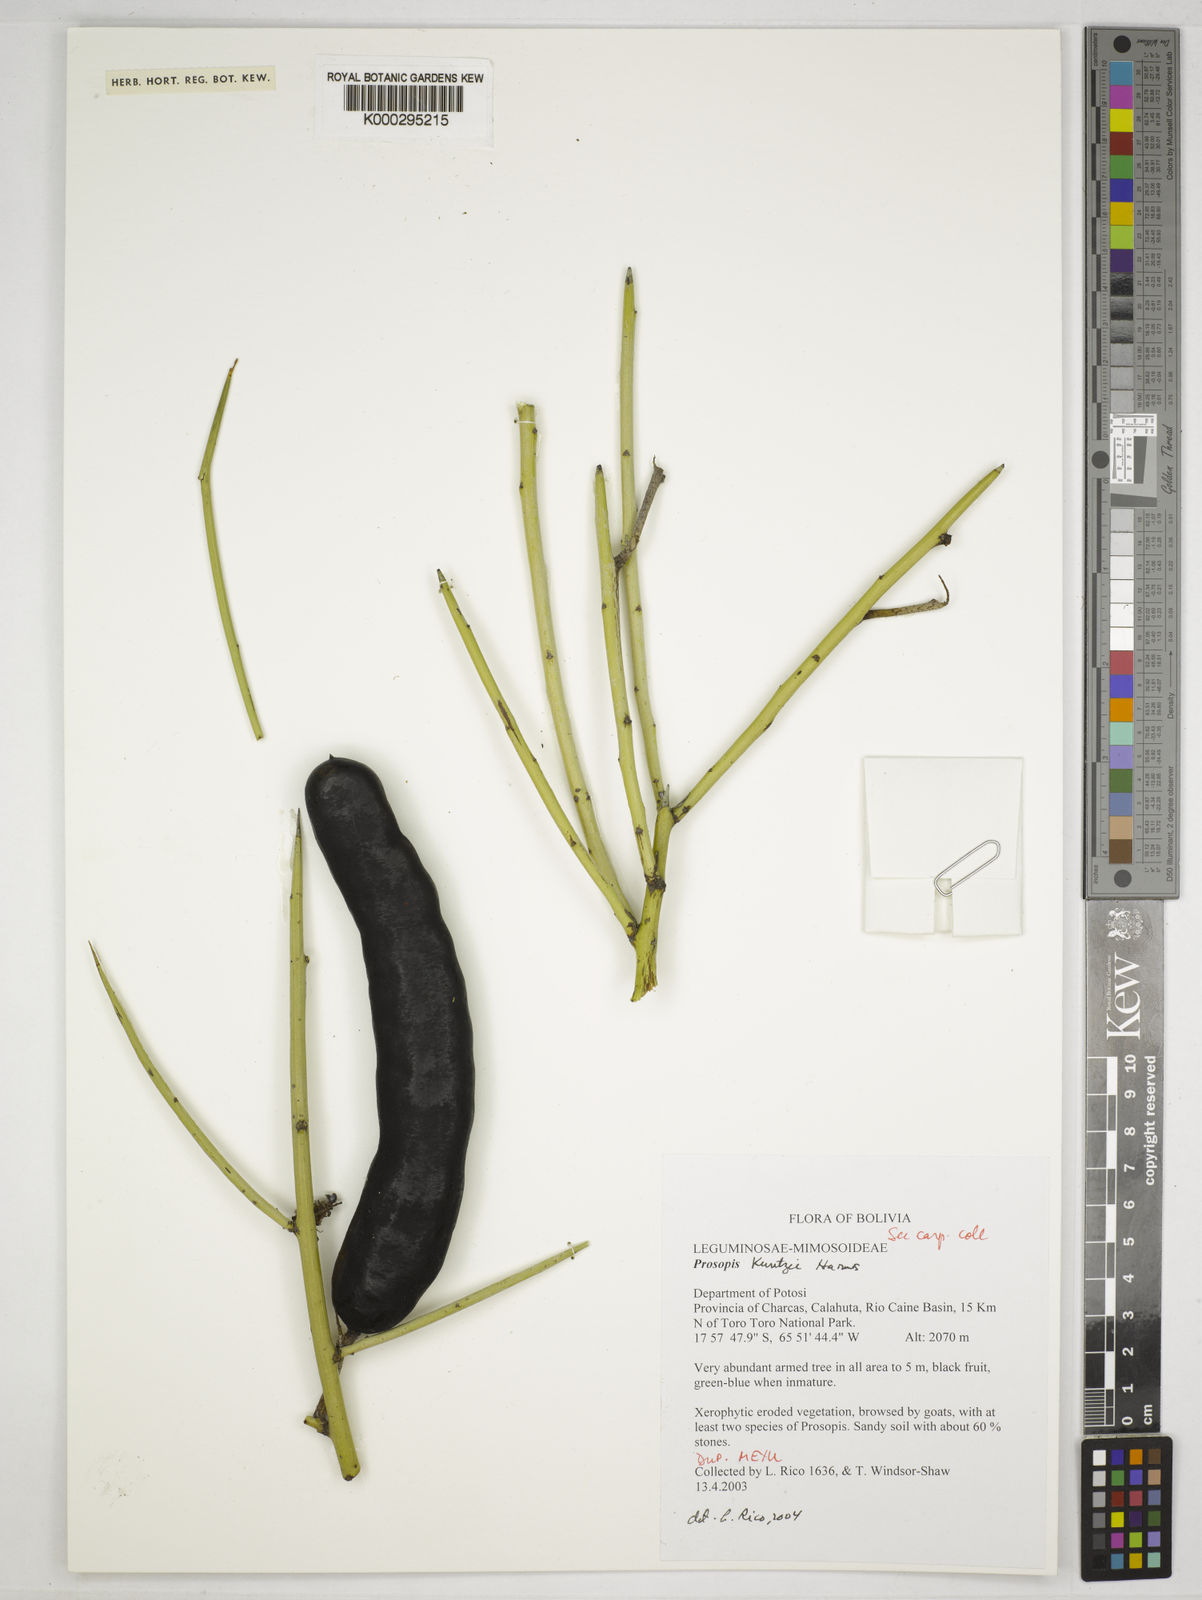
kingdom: Plantae
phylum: Tracheophyta
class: Magnoliopsida
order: Fabales
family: Fabaceae
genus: Prosopis
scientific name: Prosopis kuntzei
